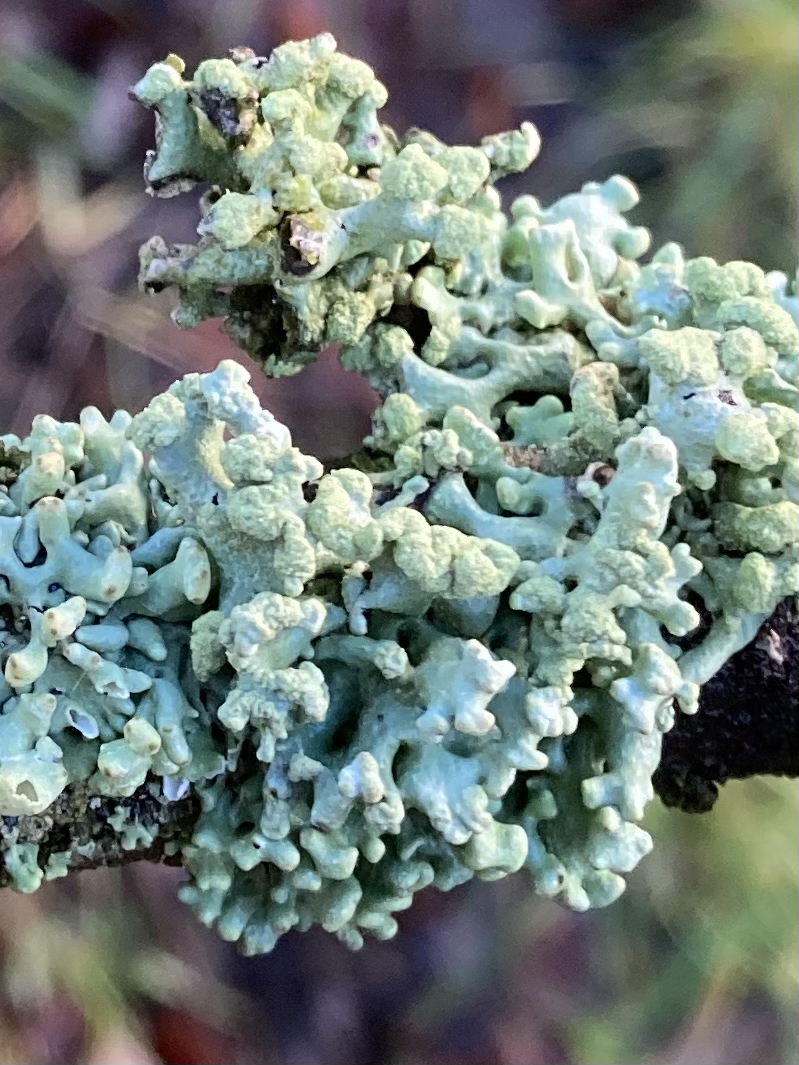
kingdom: Fungi
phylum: Ascomycota
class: Lecanoromycetes
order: Lecanorales
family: Parmeliaceae
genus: Hypogymnia
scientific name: Hypogymnia tubulosa
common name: finger-kvistlav
